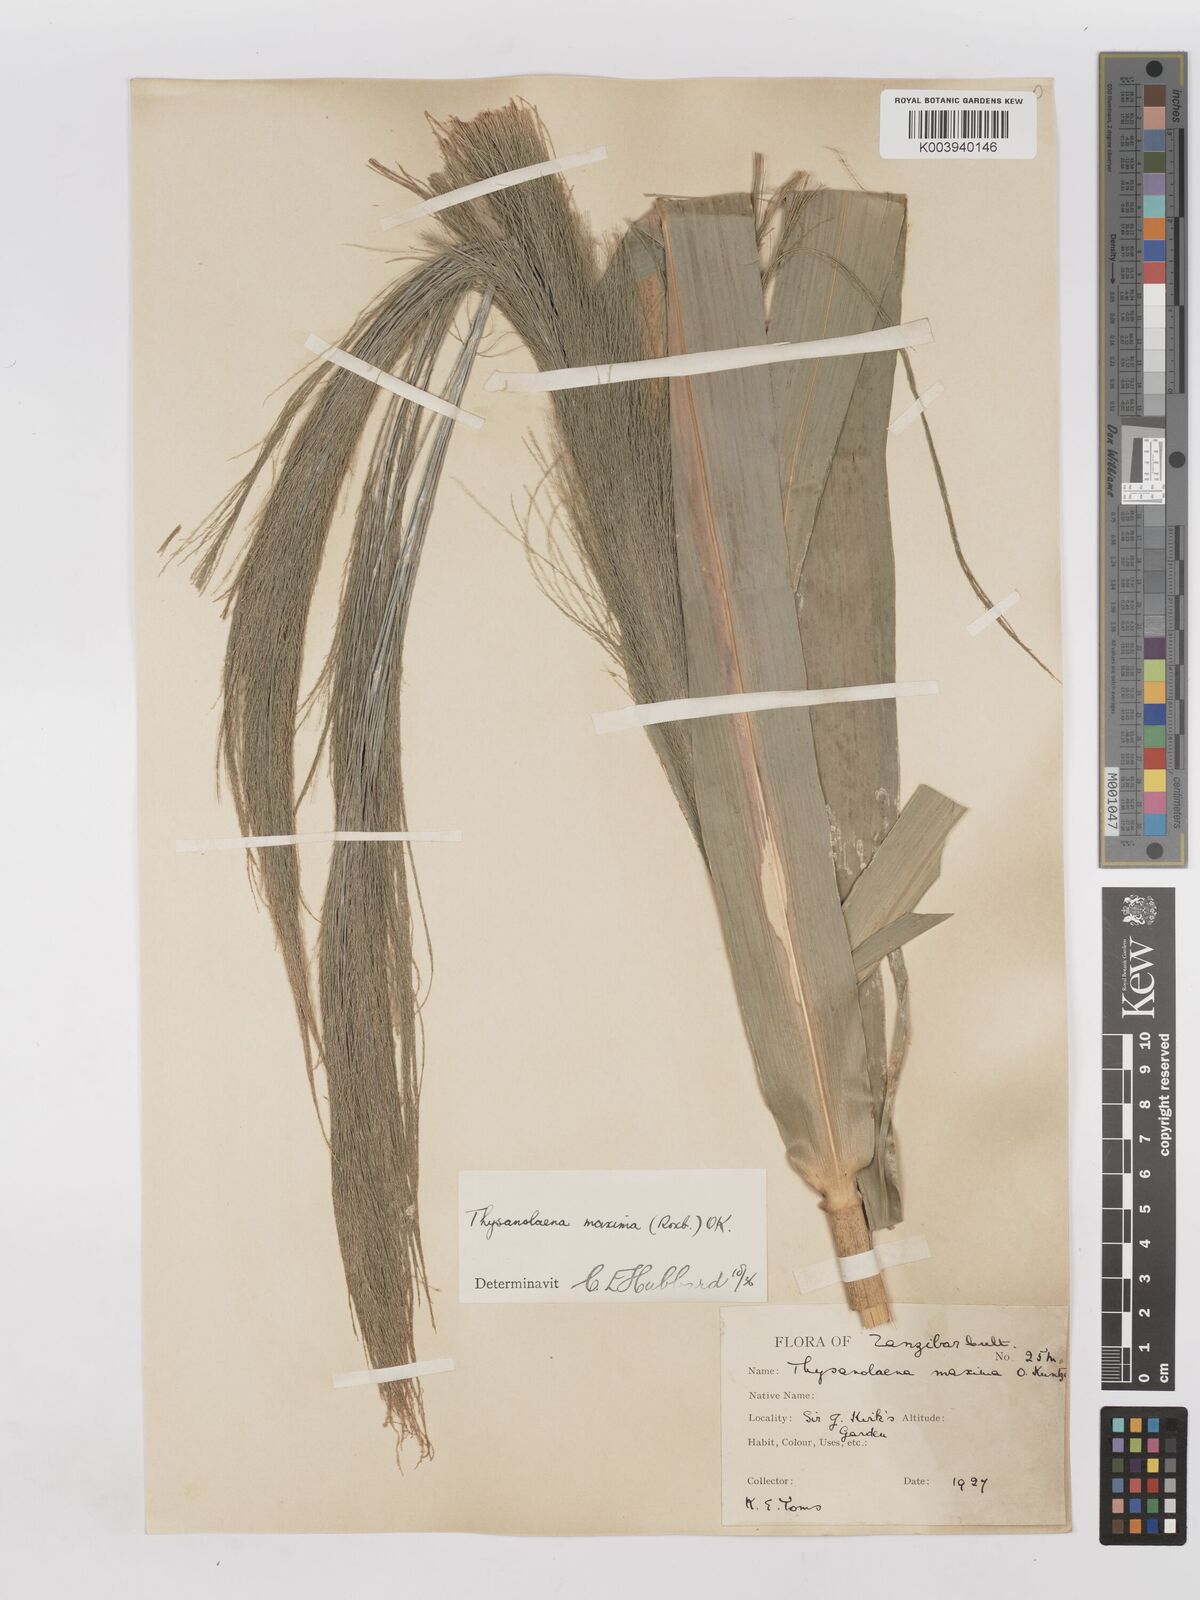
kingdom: Plantae
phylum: Tracheophyta
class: Liliopsida
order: Poales
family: Poaceae
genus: Thysanolaena
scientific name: Thysanolaena latifolia
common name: Tiger grass
